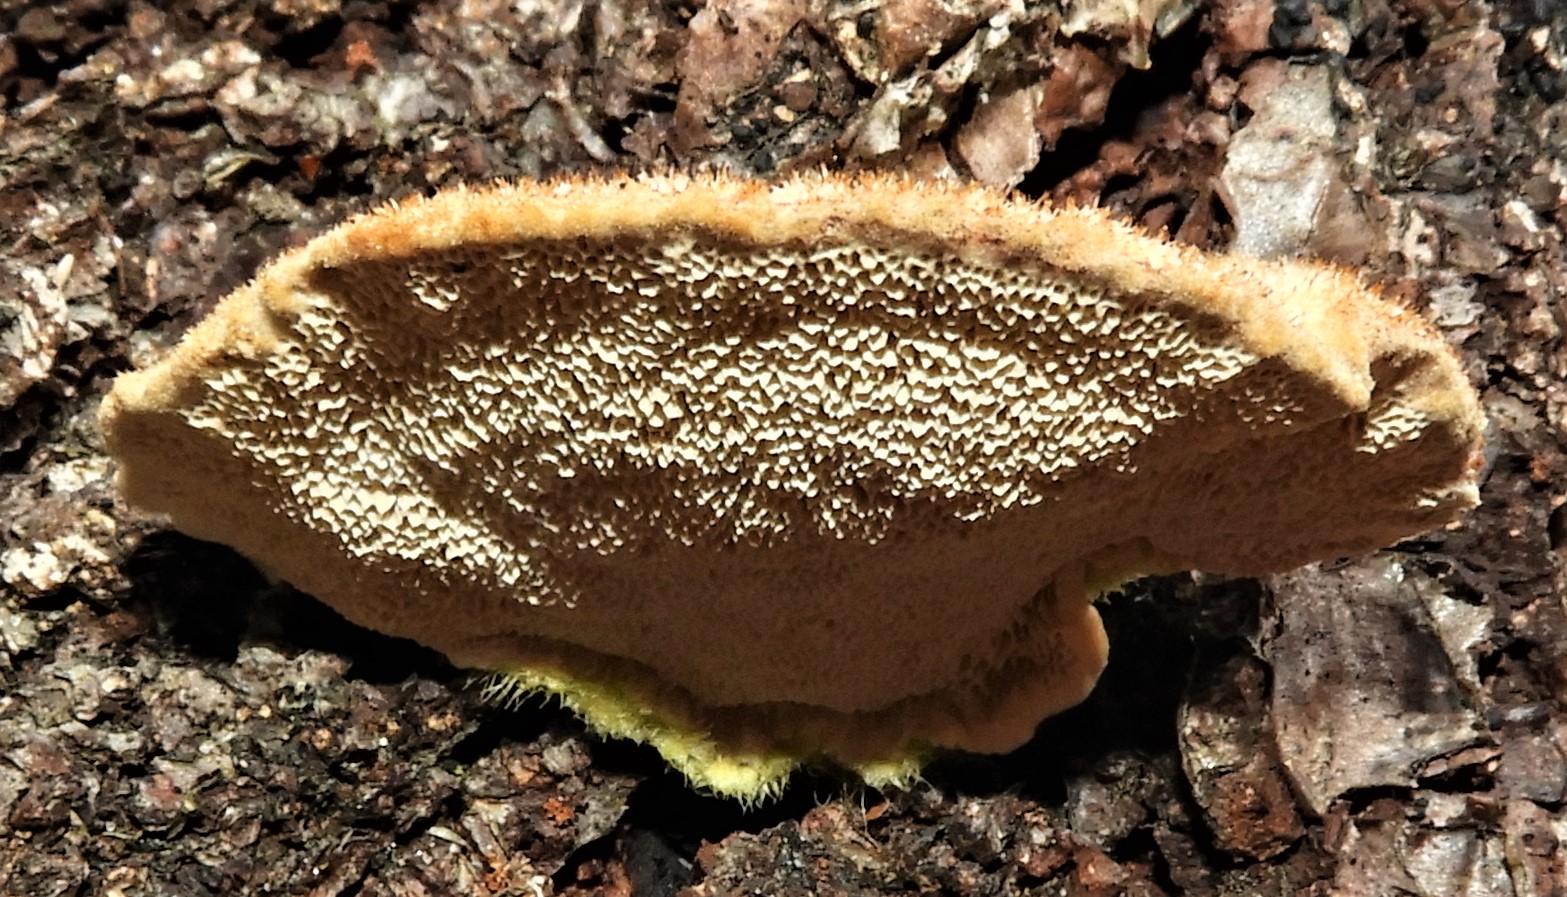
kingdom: Fungi
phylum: Basidiomycota
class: Agaricomycetes
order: Polyporales
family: Polyporaceae
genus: Trametes
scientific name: Trametes hirsuta
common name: håret læderporesvamp
